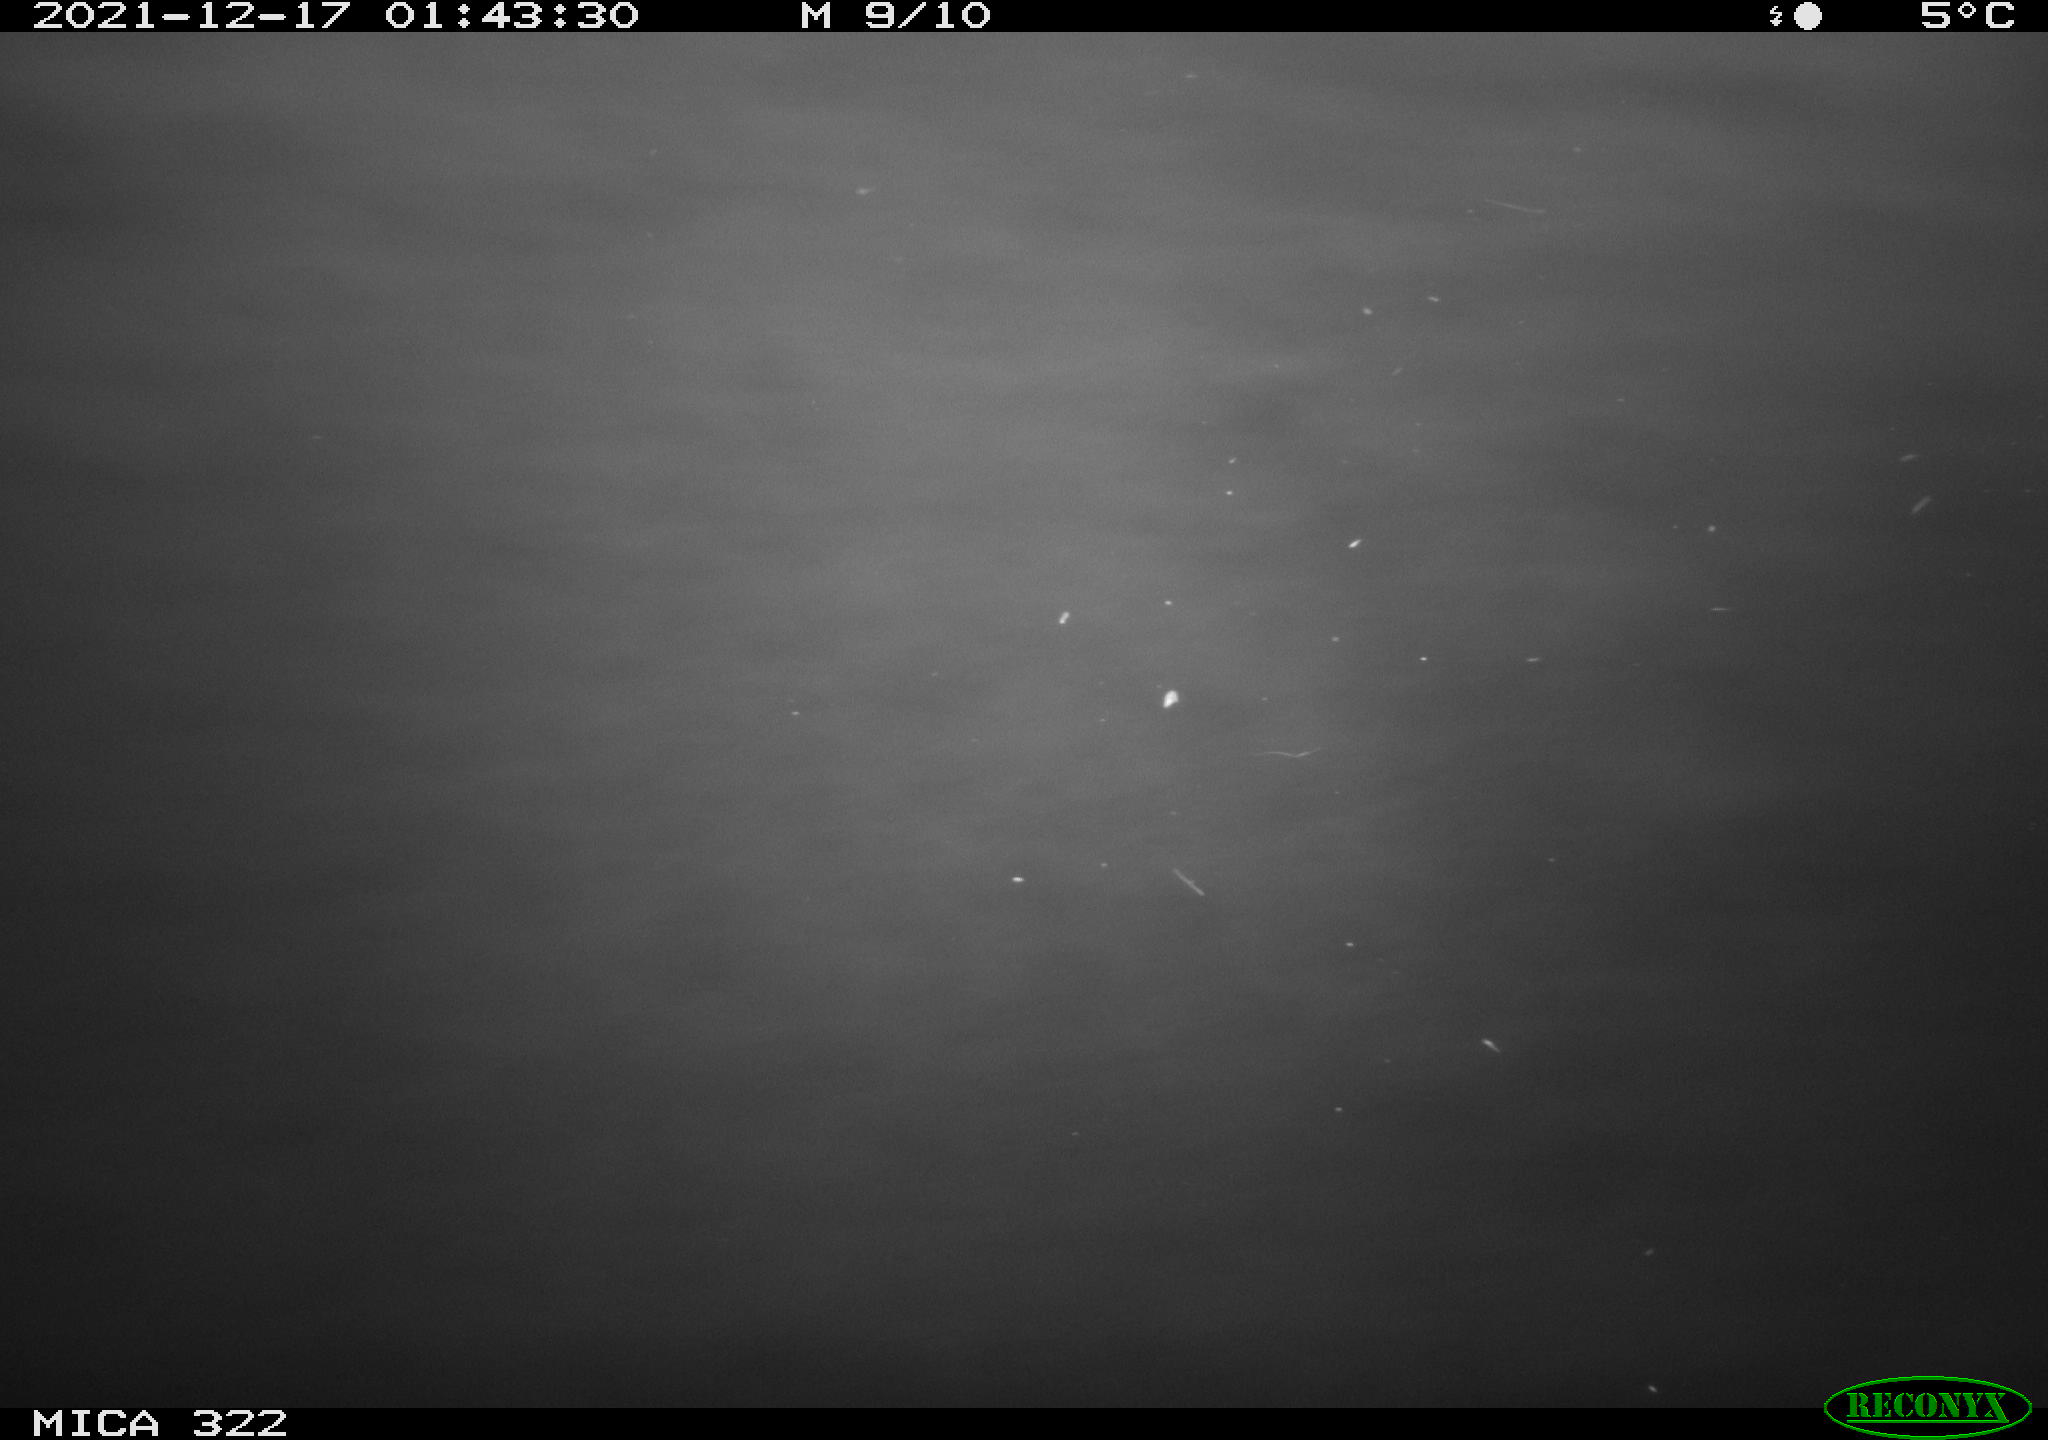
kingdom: Animalia
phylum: Chordata
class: Aves
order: Anseriformes
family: Anatidae
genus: Anas
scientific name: Anas
